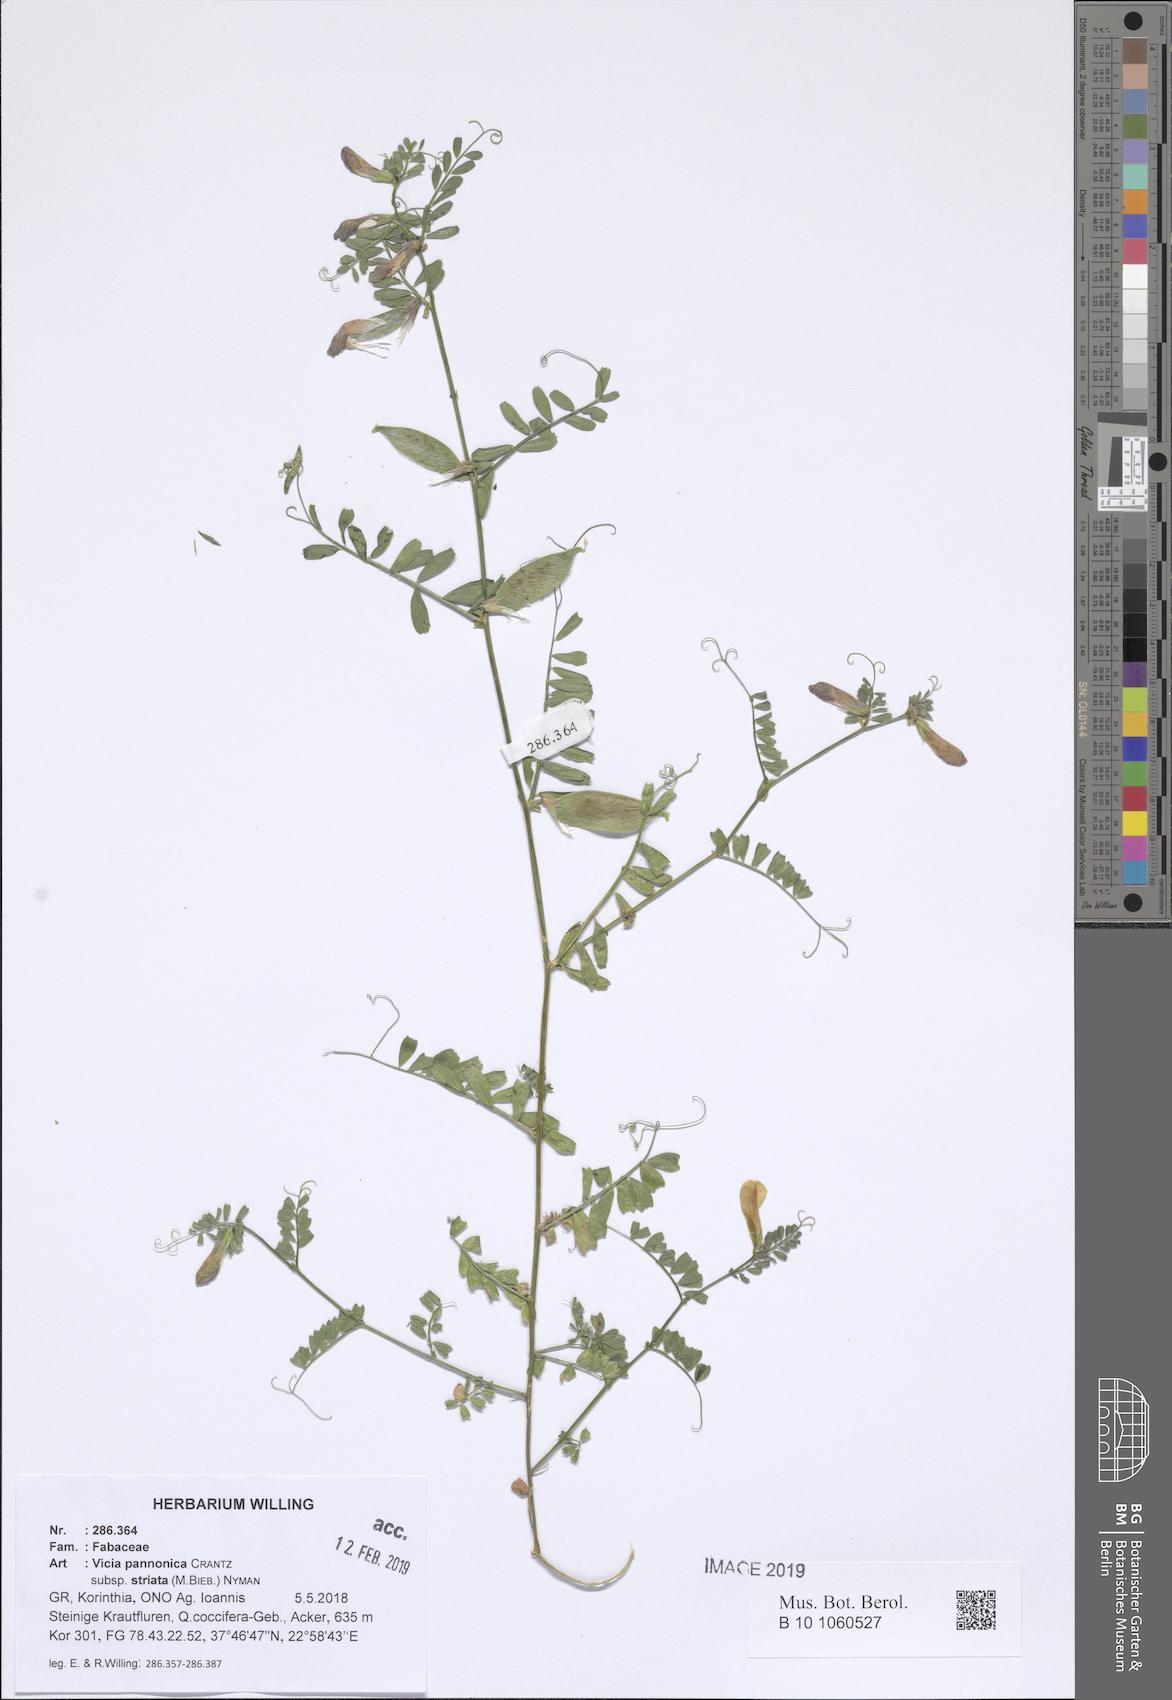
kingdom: Plantae
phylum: Tracheophyta
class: Magnoliopsida
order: Fabales
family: Fabaceae
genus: Vicia
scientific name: Vicia pannonica
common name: Hungarian vetch
